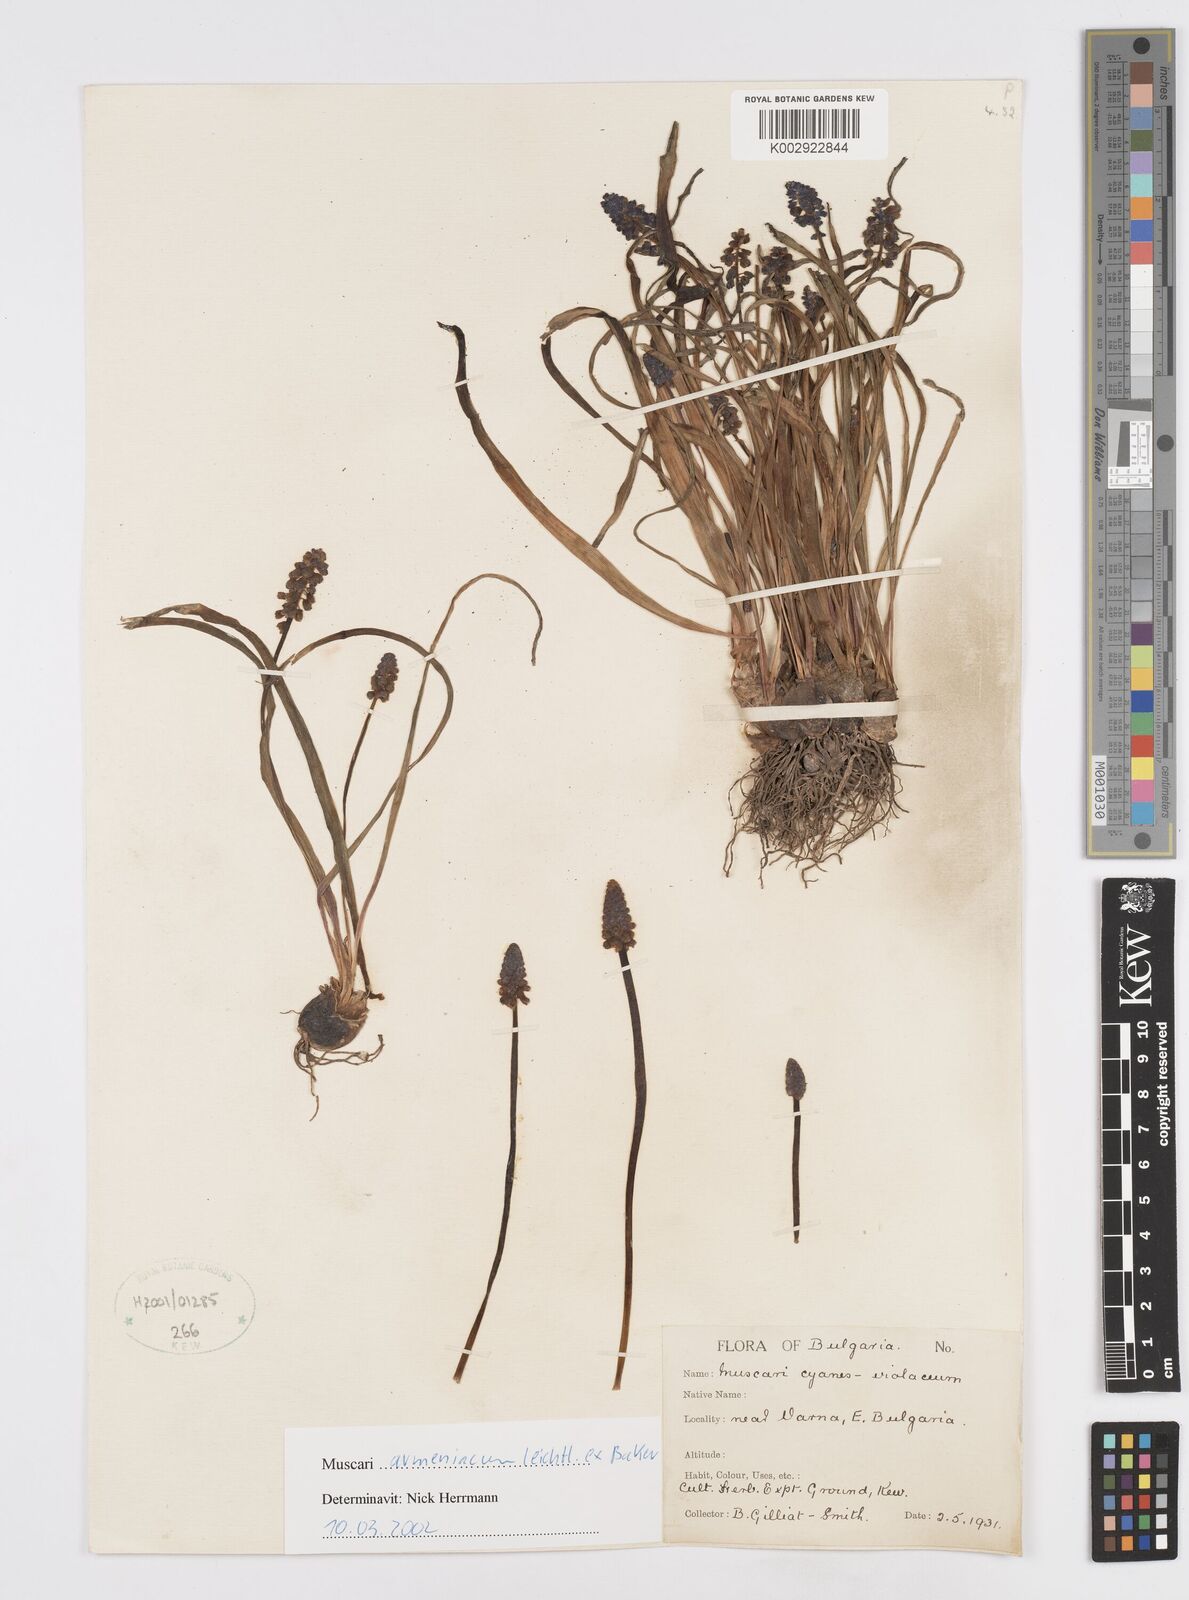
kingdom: Plantae
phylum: Tracheophyta
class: Liliopsida
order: Asparagales
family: Asparagaceae
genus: Muscari
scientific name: Muscari
